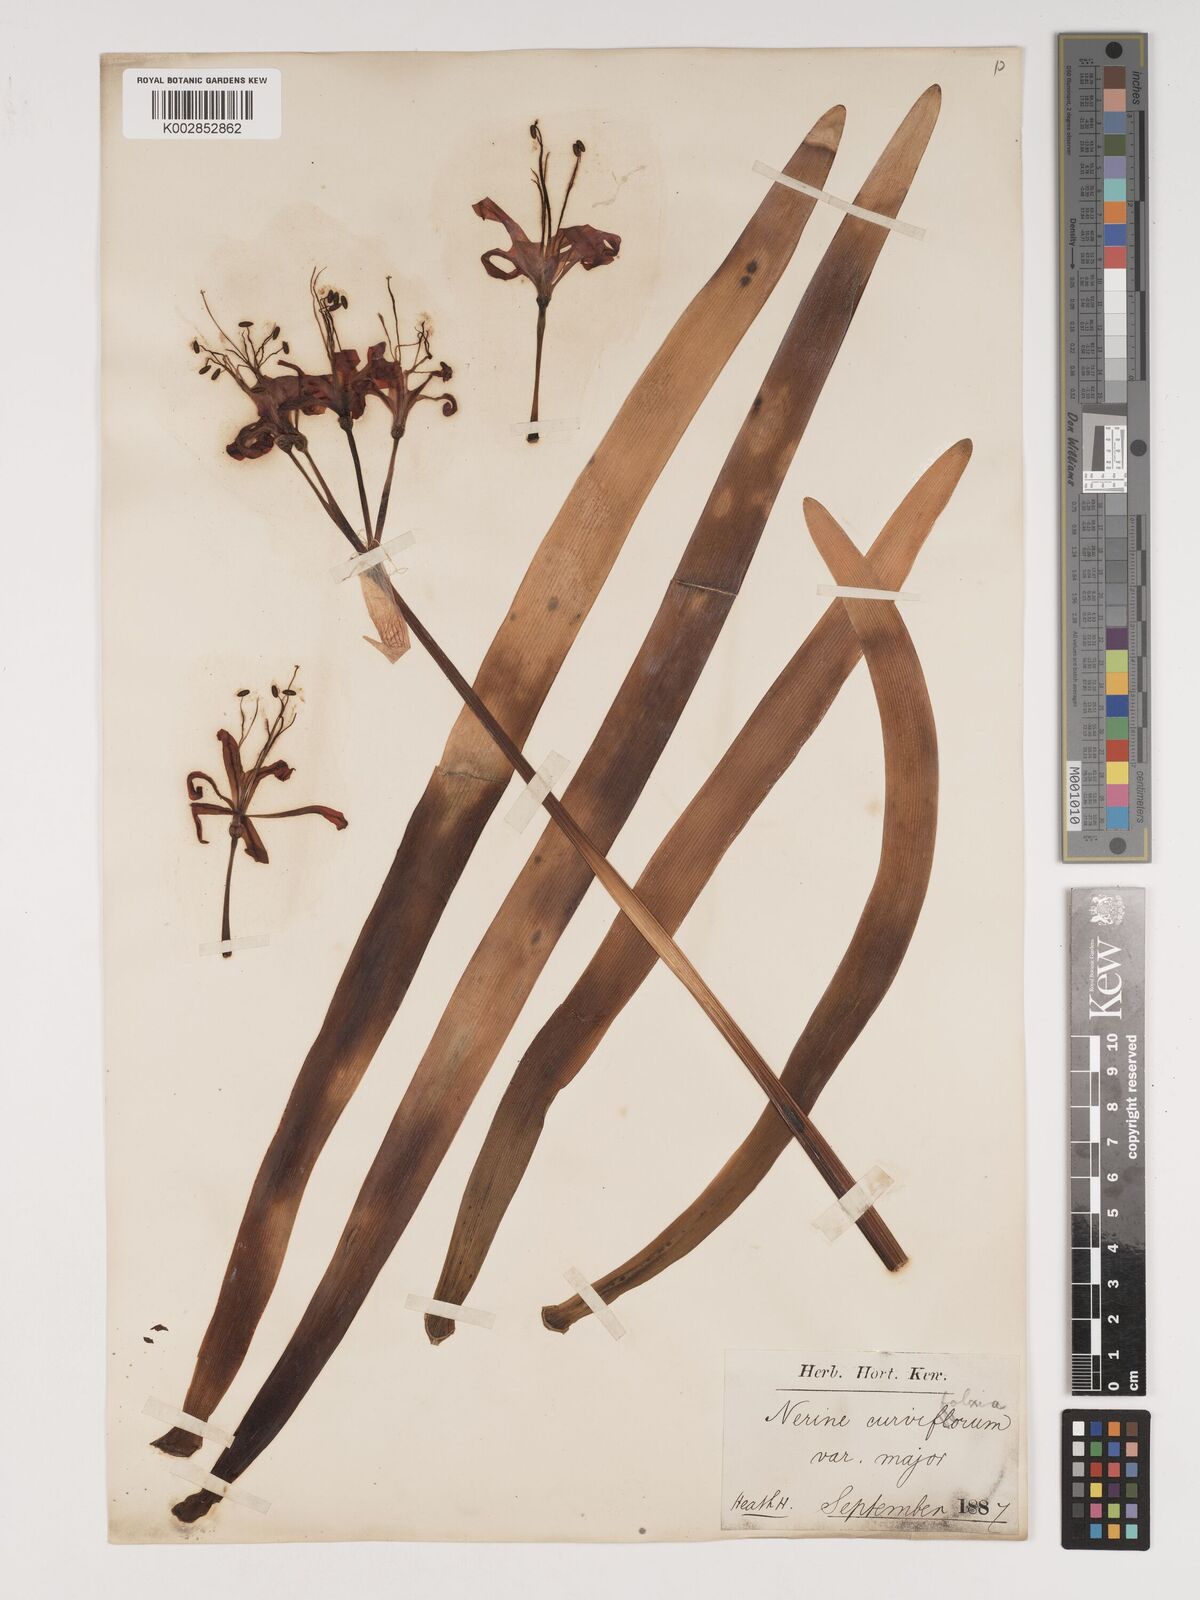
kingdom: Plantae
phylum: Tracheophyta
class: Liliopsida
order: Asparagales
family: Amaryllidaceae
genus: Nerine
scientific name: Nerine sarniensis
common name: Guernsey-lily
